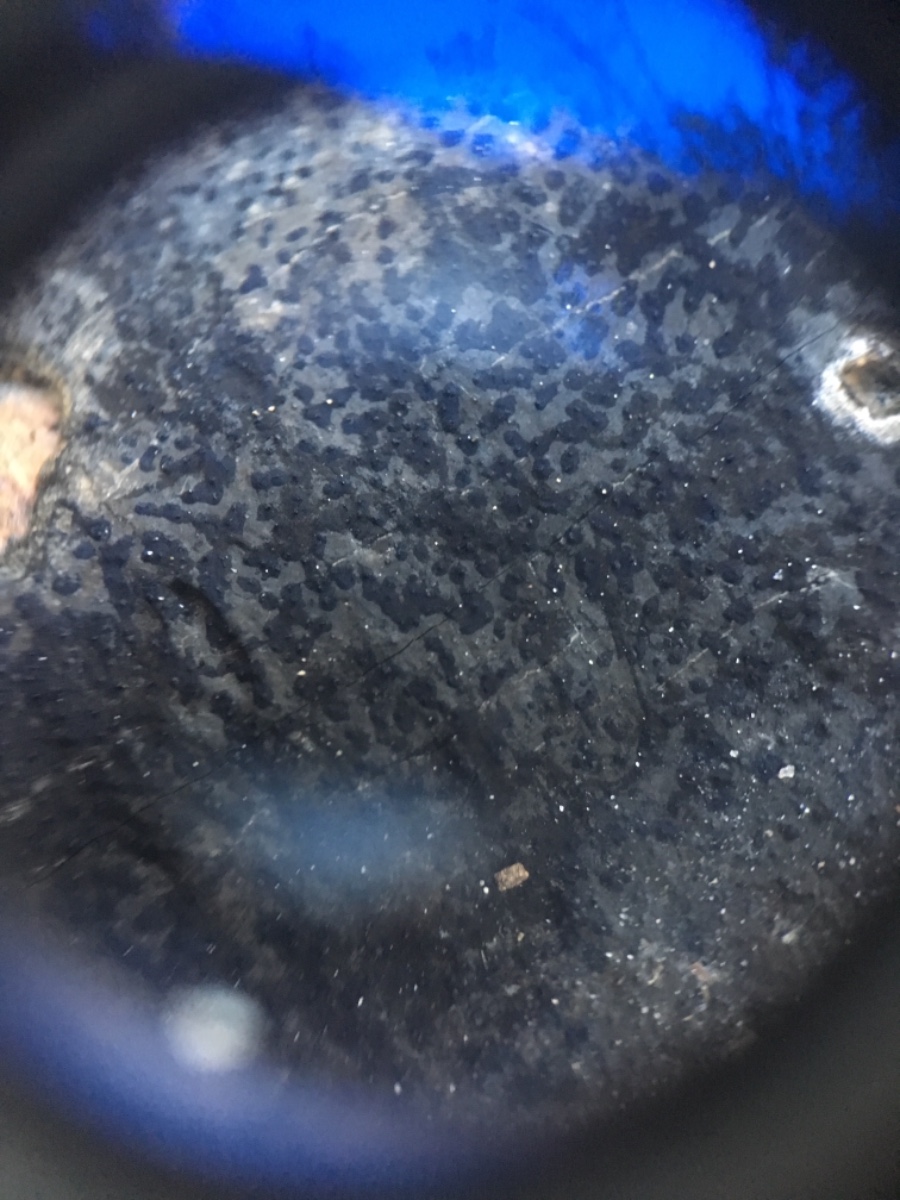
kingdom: Fungi
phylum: Ascomycota
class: Sordariomycetes
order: Xylariales
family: Graphostromataceae
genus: Biscogniauxia
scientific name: Biscogniauxia nummularia
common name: bøge-kulskive
